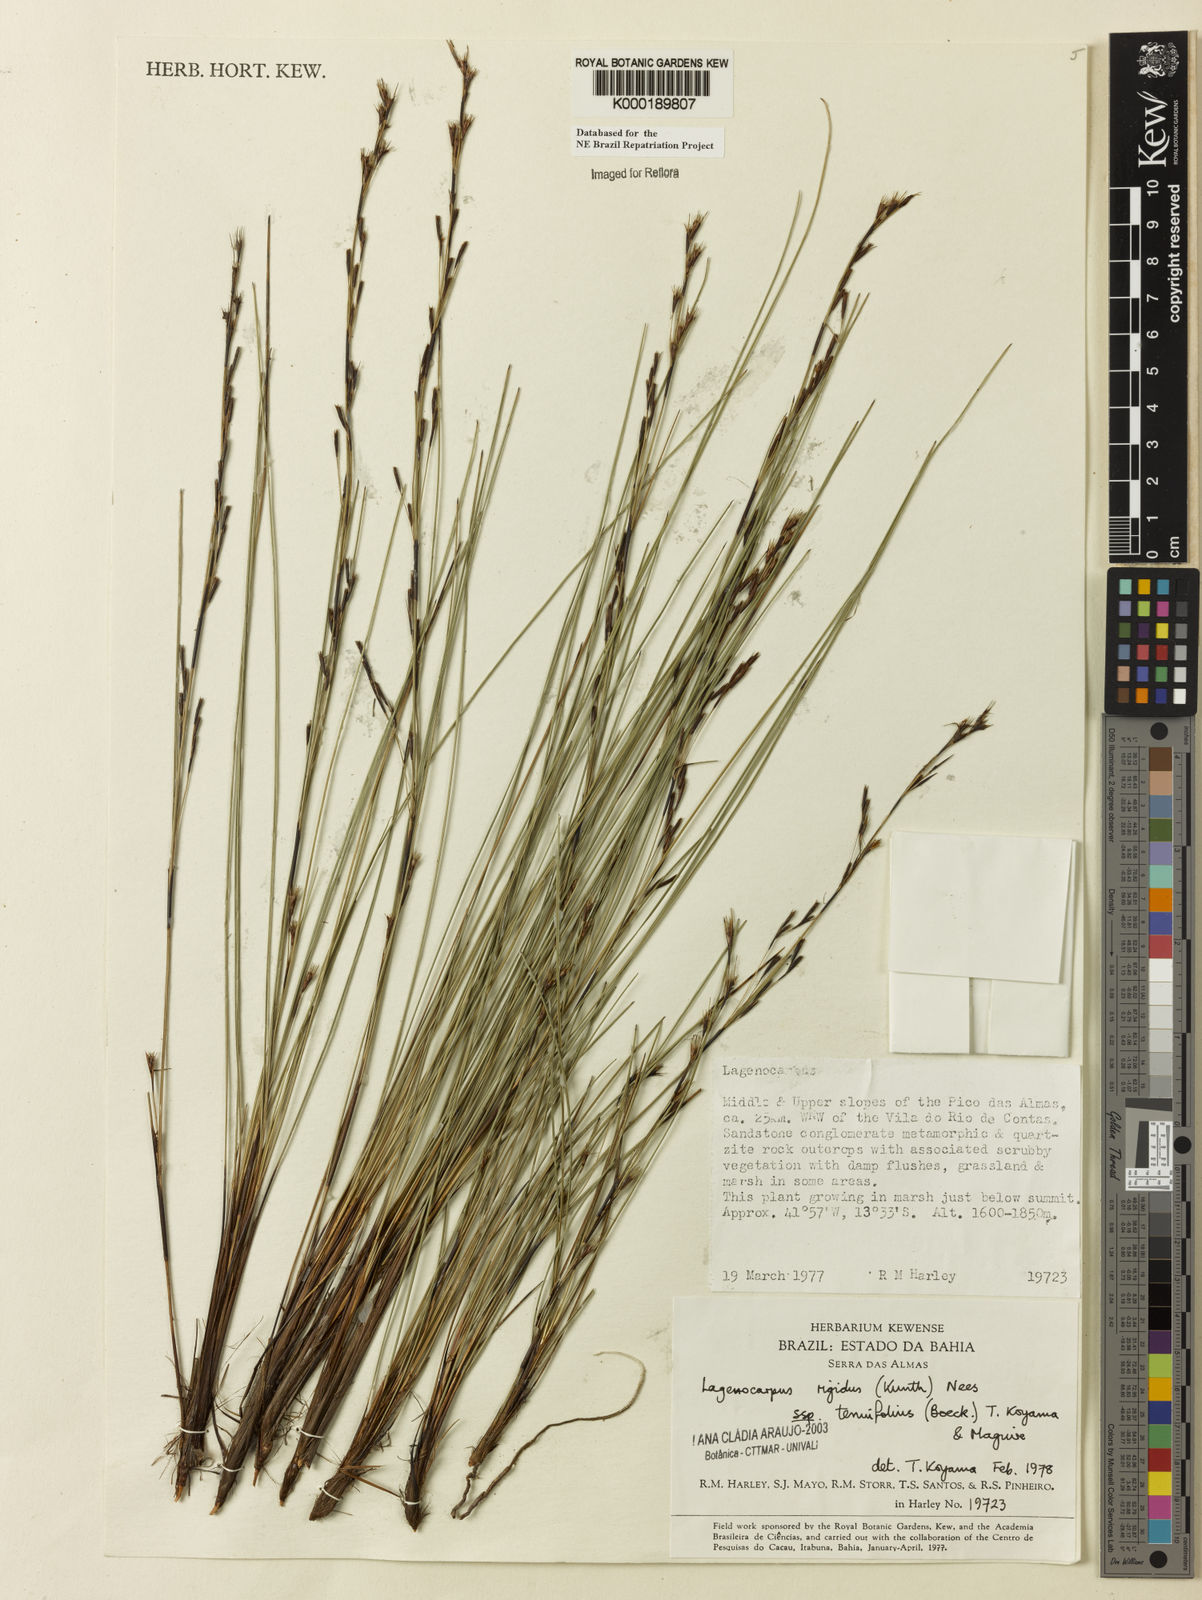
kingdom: Plantae
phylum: Tracheophyta
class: Liliopsida
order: Poales
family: Cyperaceae
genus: Lagenocarpus
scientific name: Lagenocarpus rigidus
